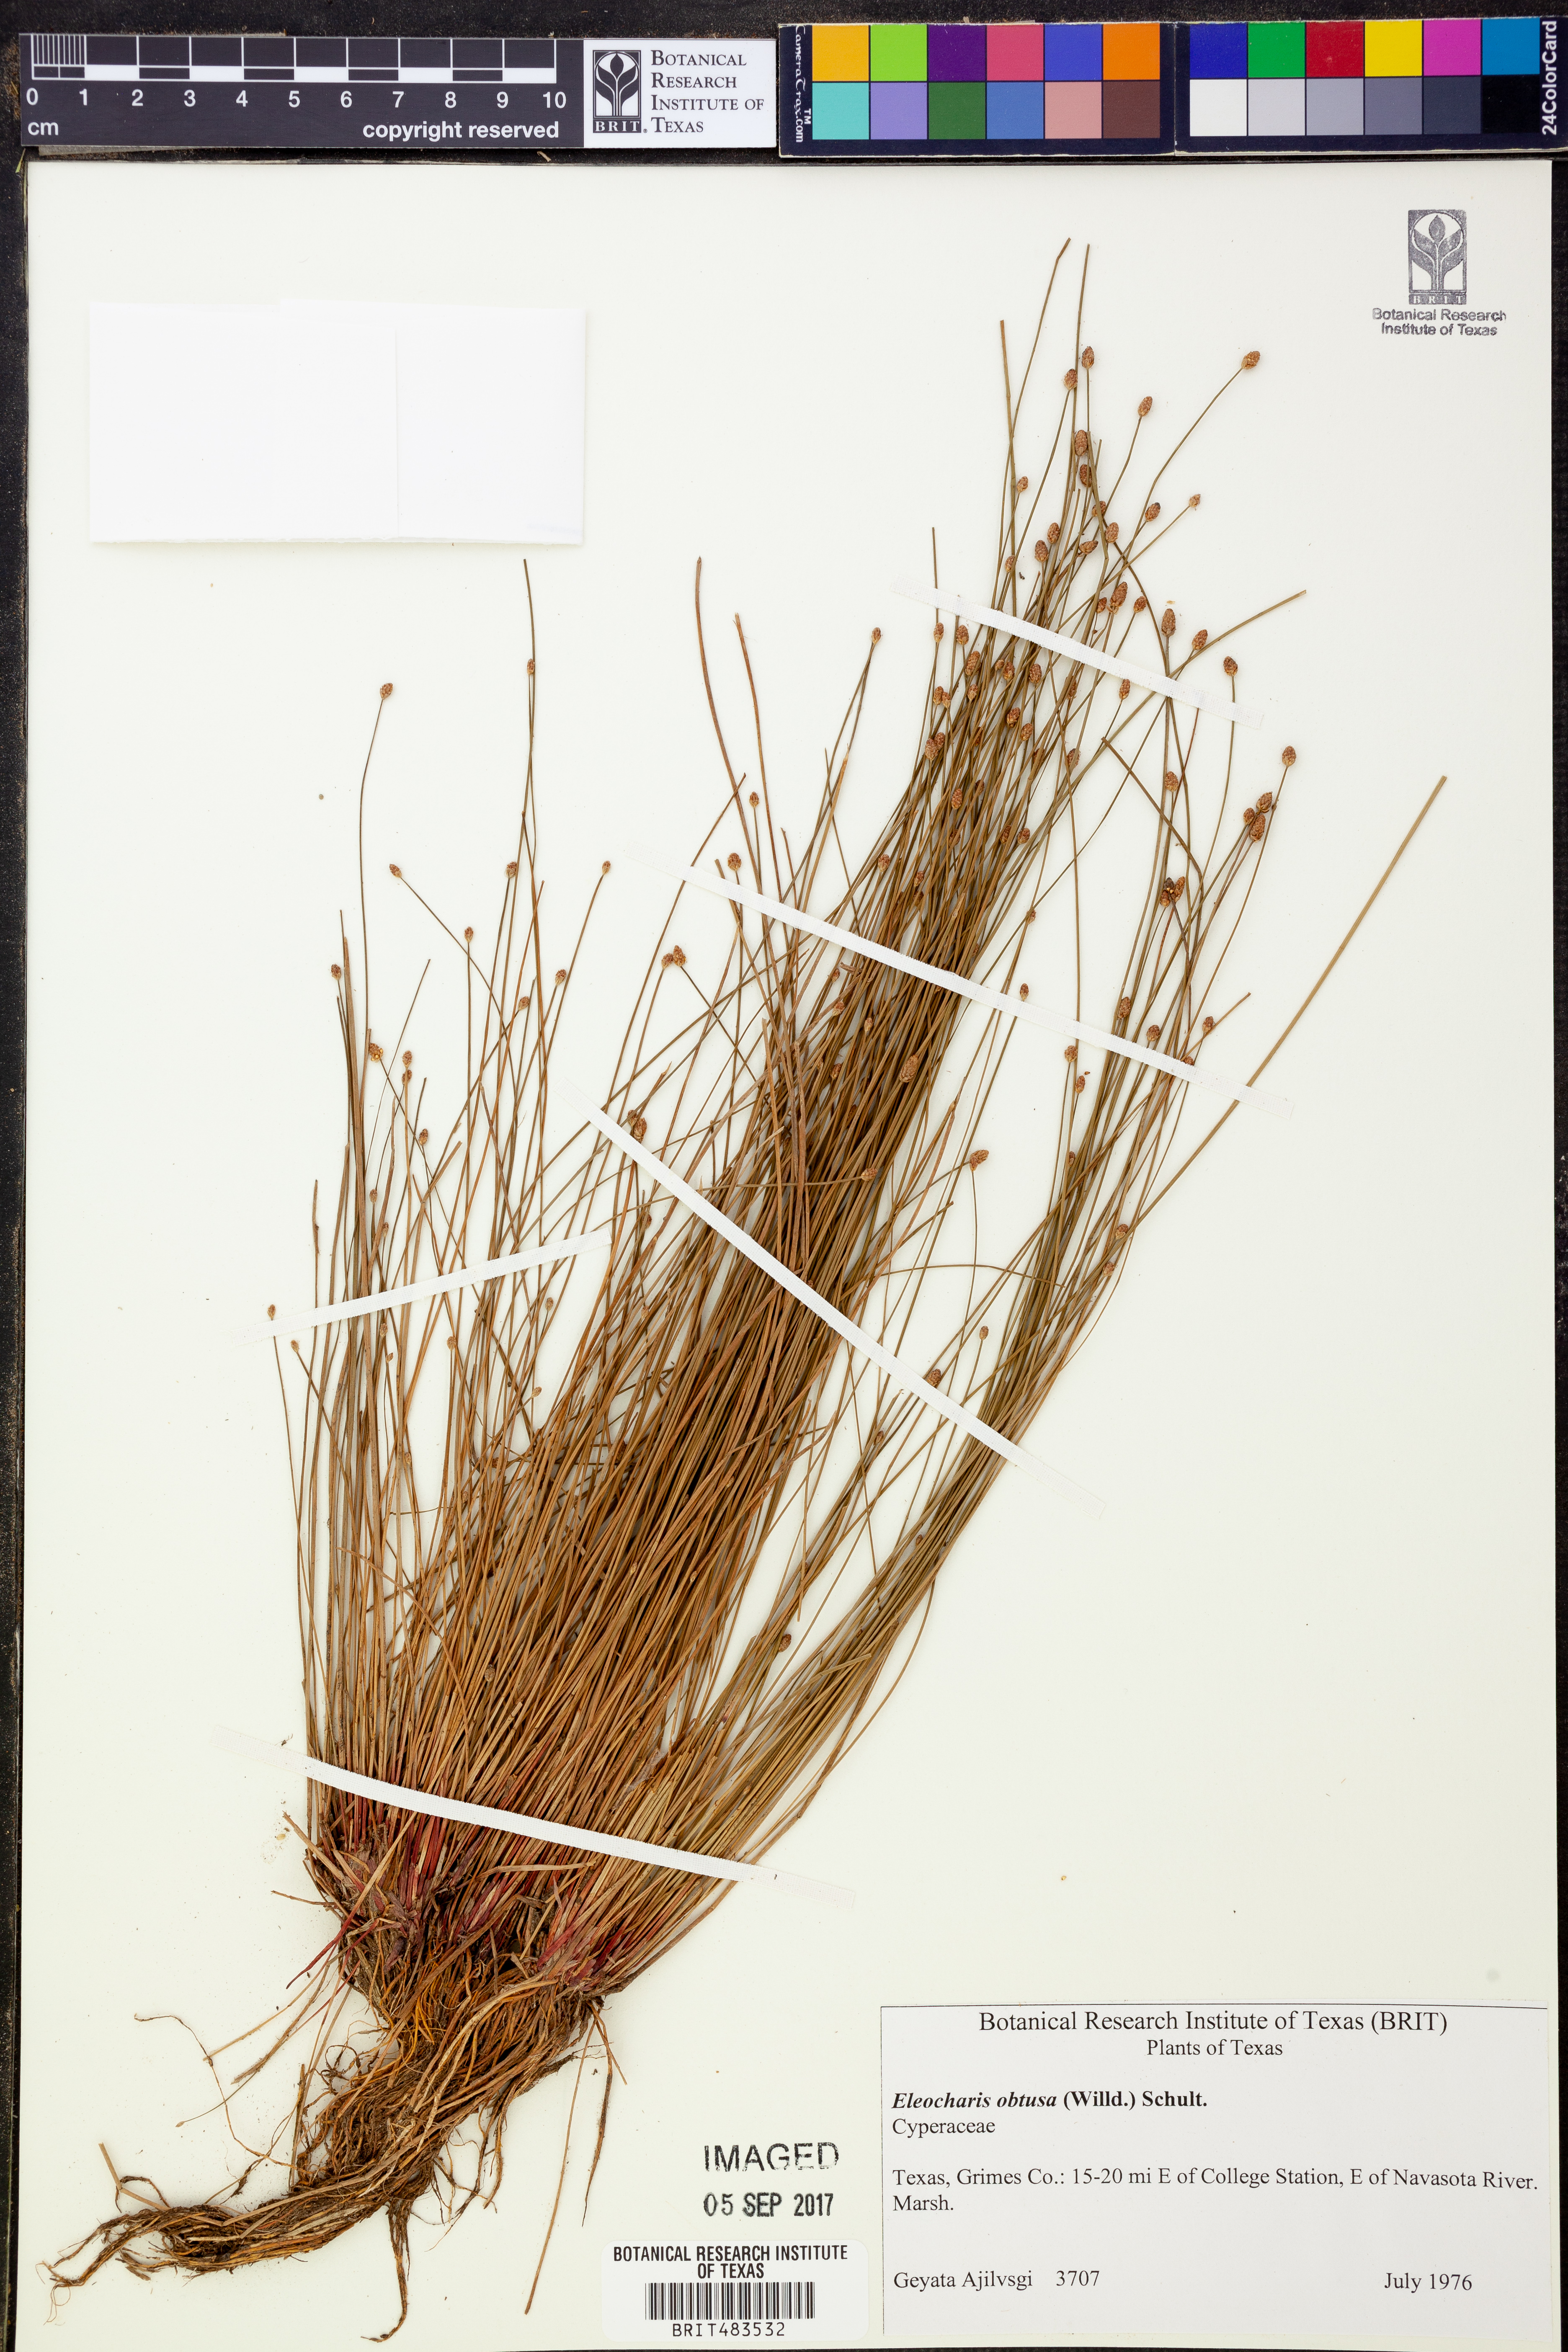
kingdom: Plantae
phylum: Tracheophyta
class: Liliopsida
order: Poales
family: Cyperaceae
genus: Eleocharis
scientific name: Eleocharis obtusa
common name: Blunt spikerush
